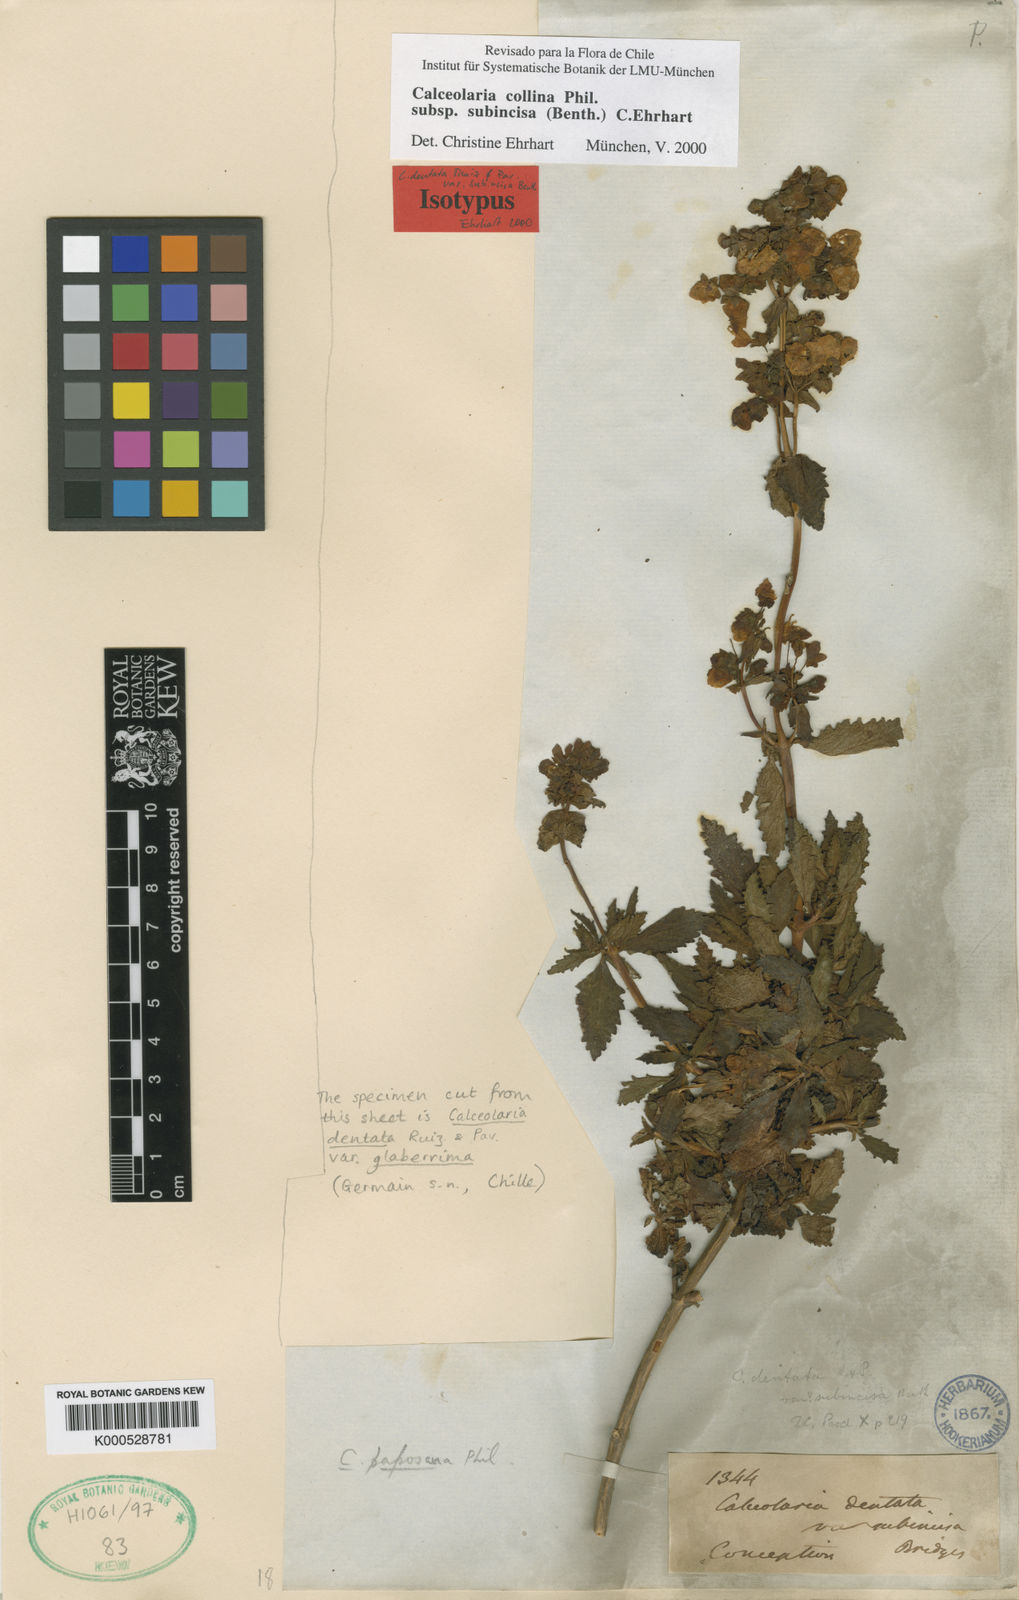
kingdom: Plantae
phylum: Tracheophyta
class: Magnoliopsida
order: Lamiales
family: Calceolariaceae
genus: Calceolaria
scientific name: Calceolaria collina
